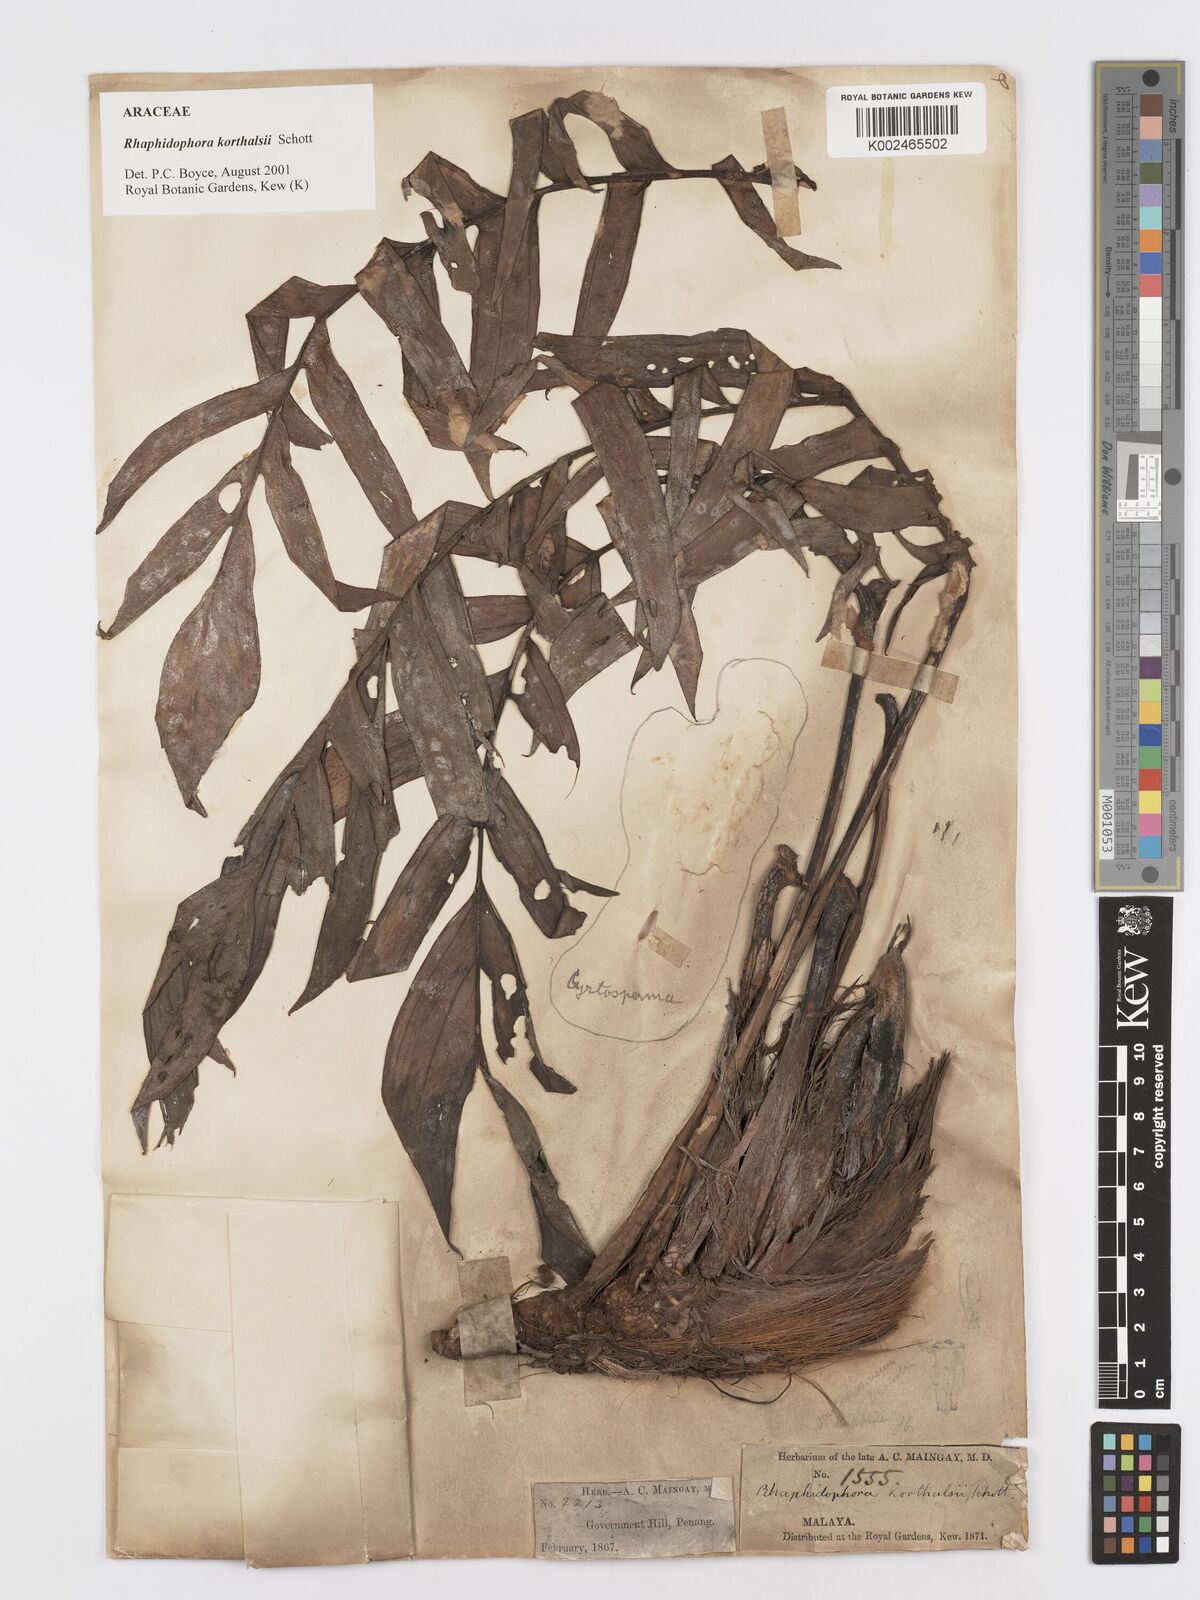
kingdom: Plantae
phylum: Tracheophyta
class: Liliopsida
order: Alismatales
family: Araceae
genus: Rhaphidophora
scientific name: Rhaphidophora korthalsii
